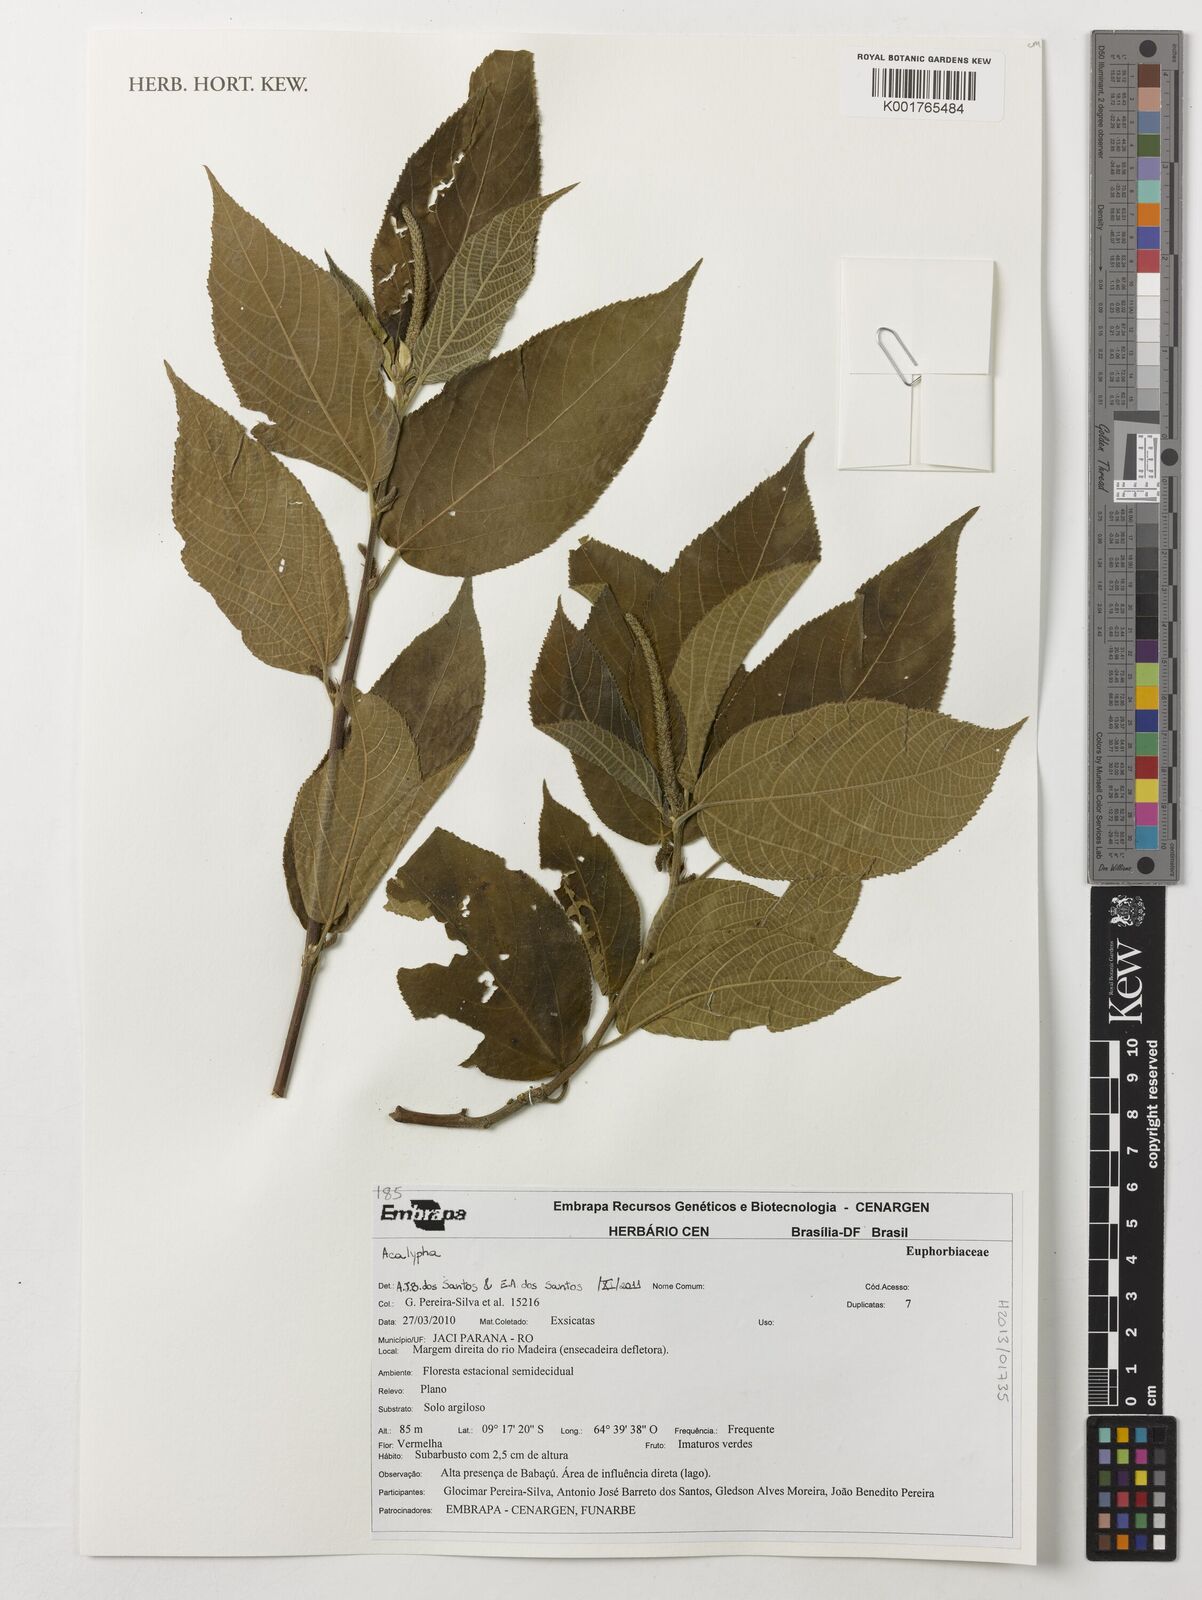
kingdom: Plantae
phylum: Tracheophyta
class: Magnoliopsida
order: Malpighiales
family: Euphorbiaceae
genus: Acalypha
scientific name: Acalypha
